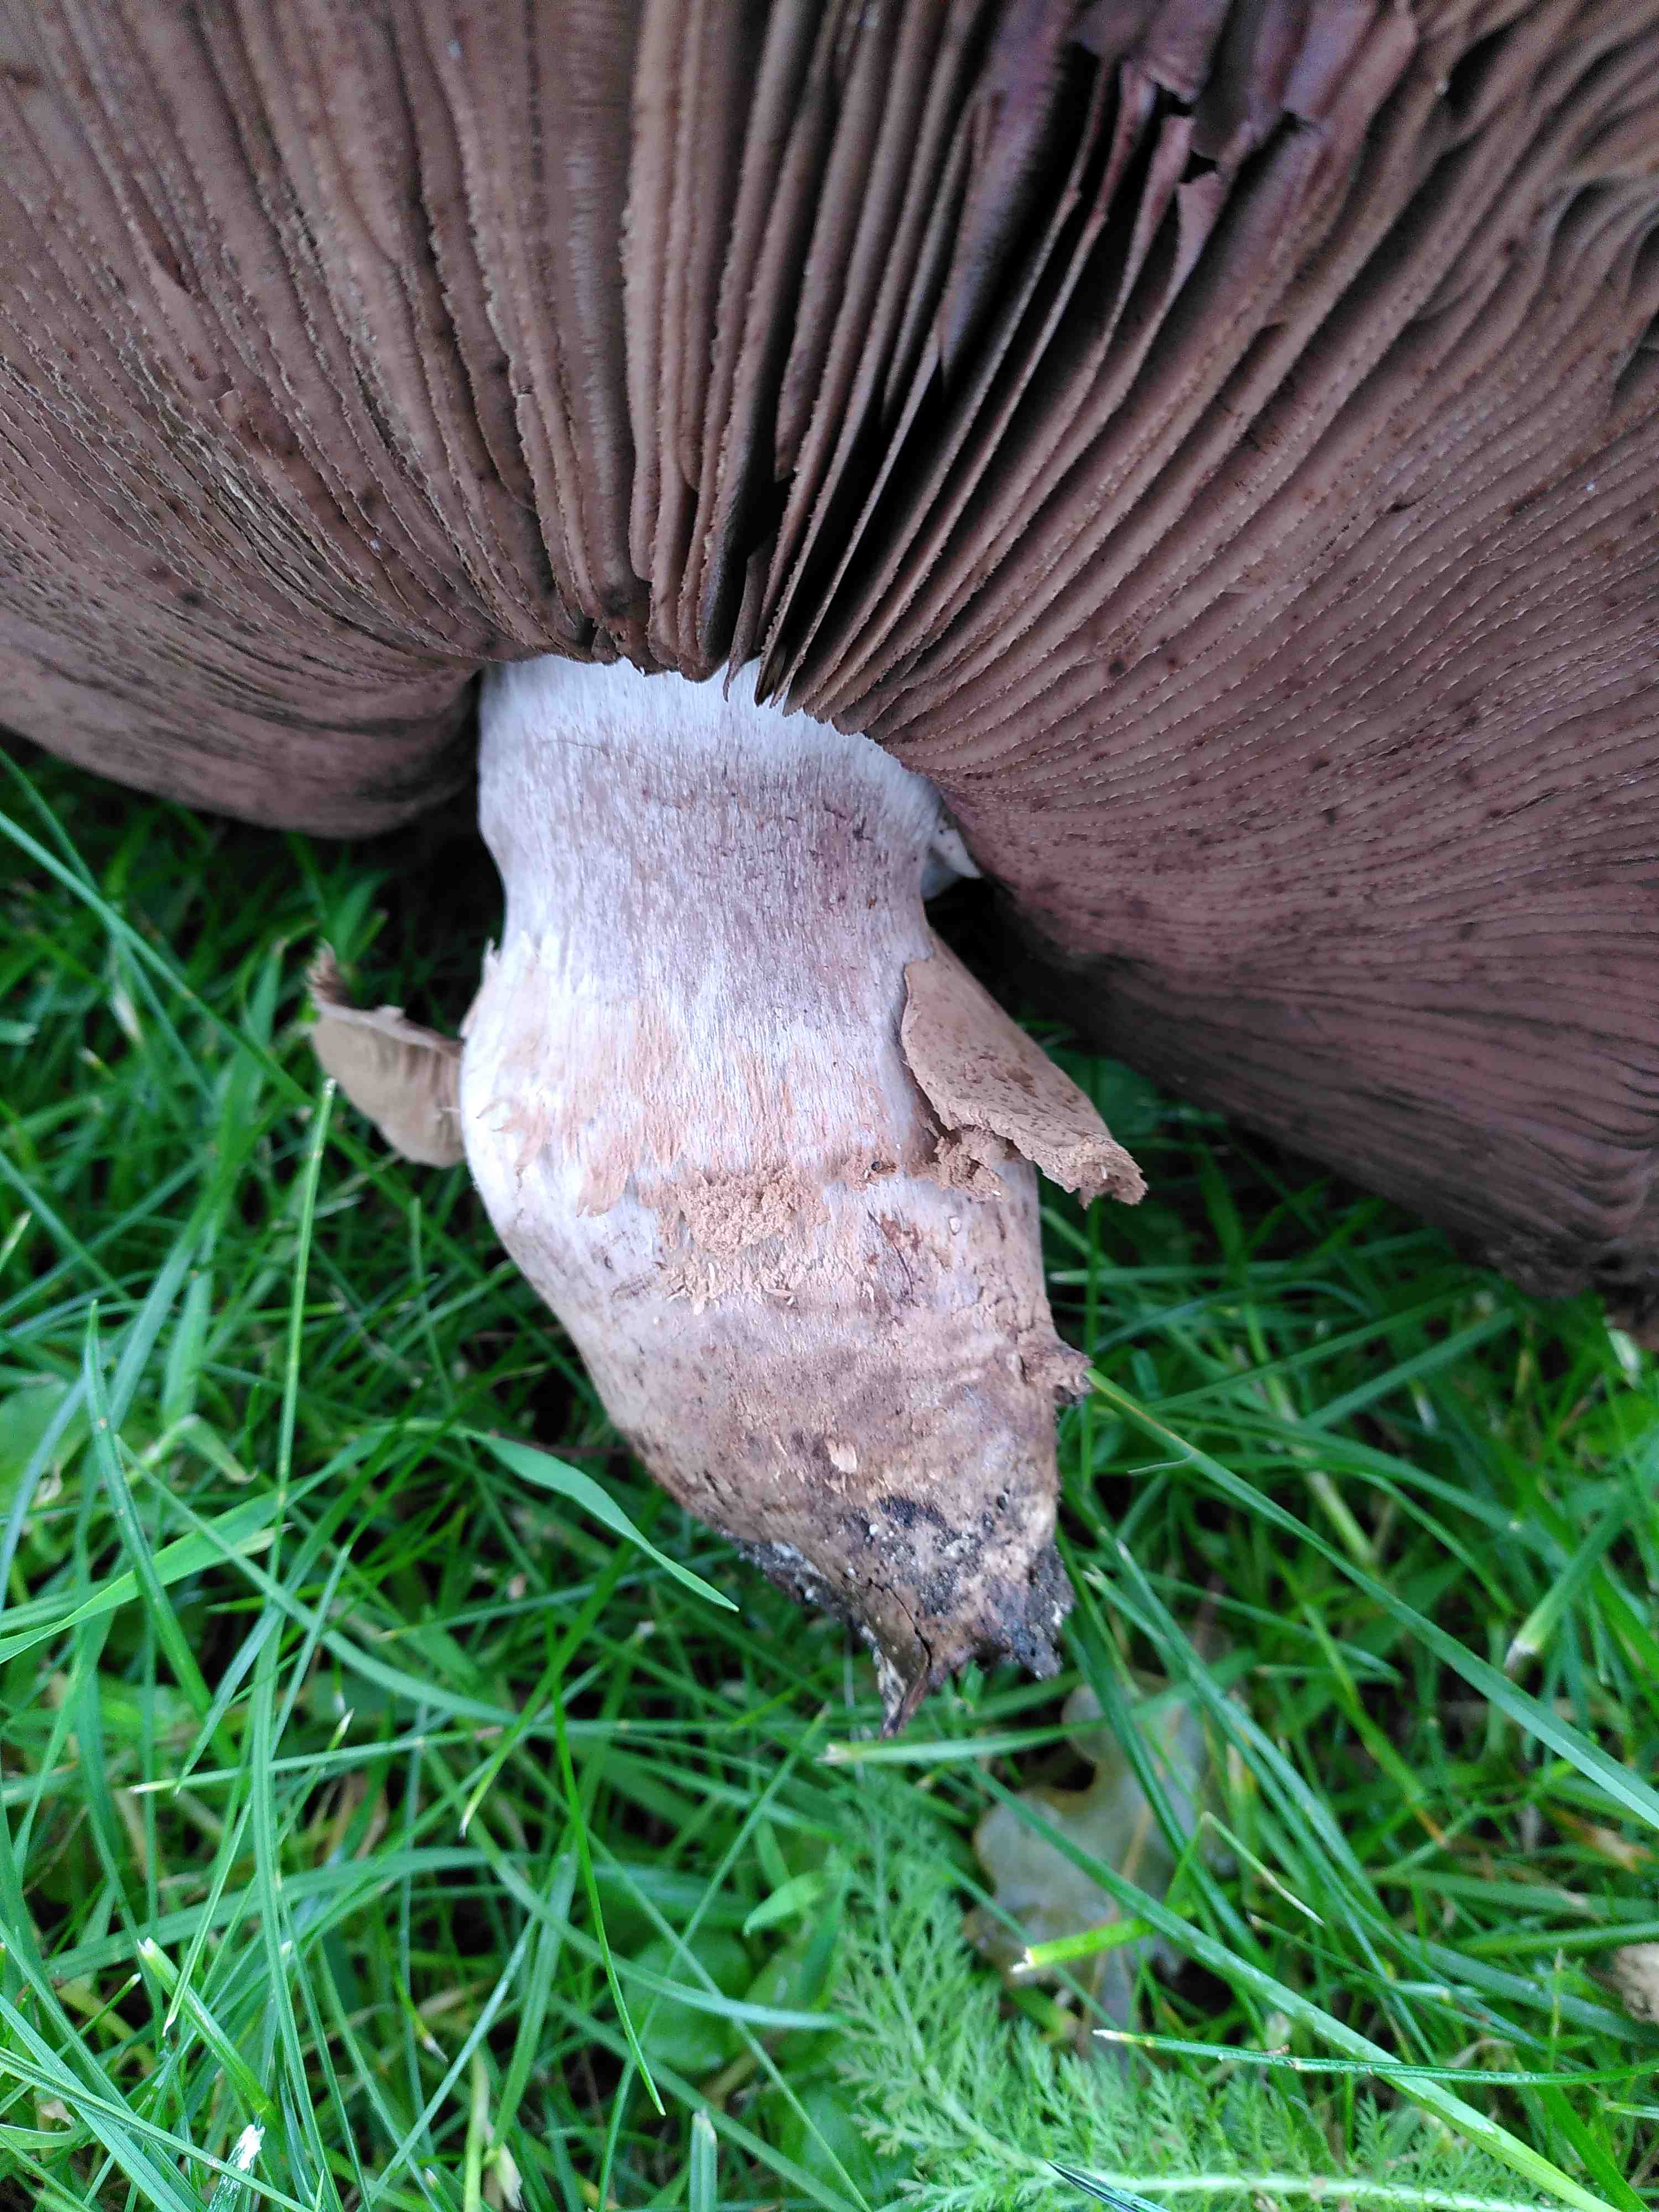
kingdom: Fungi
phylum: Basidiomycota
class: Agaricomycetes
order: Agaricales
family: Agaricaceae
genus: Agaricus
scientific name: Agaricus bohusii
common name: krumskællet champignon
